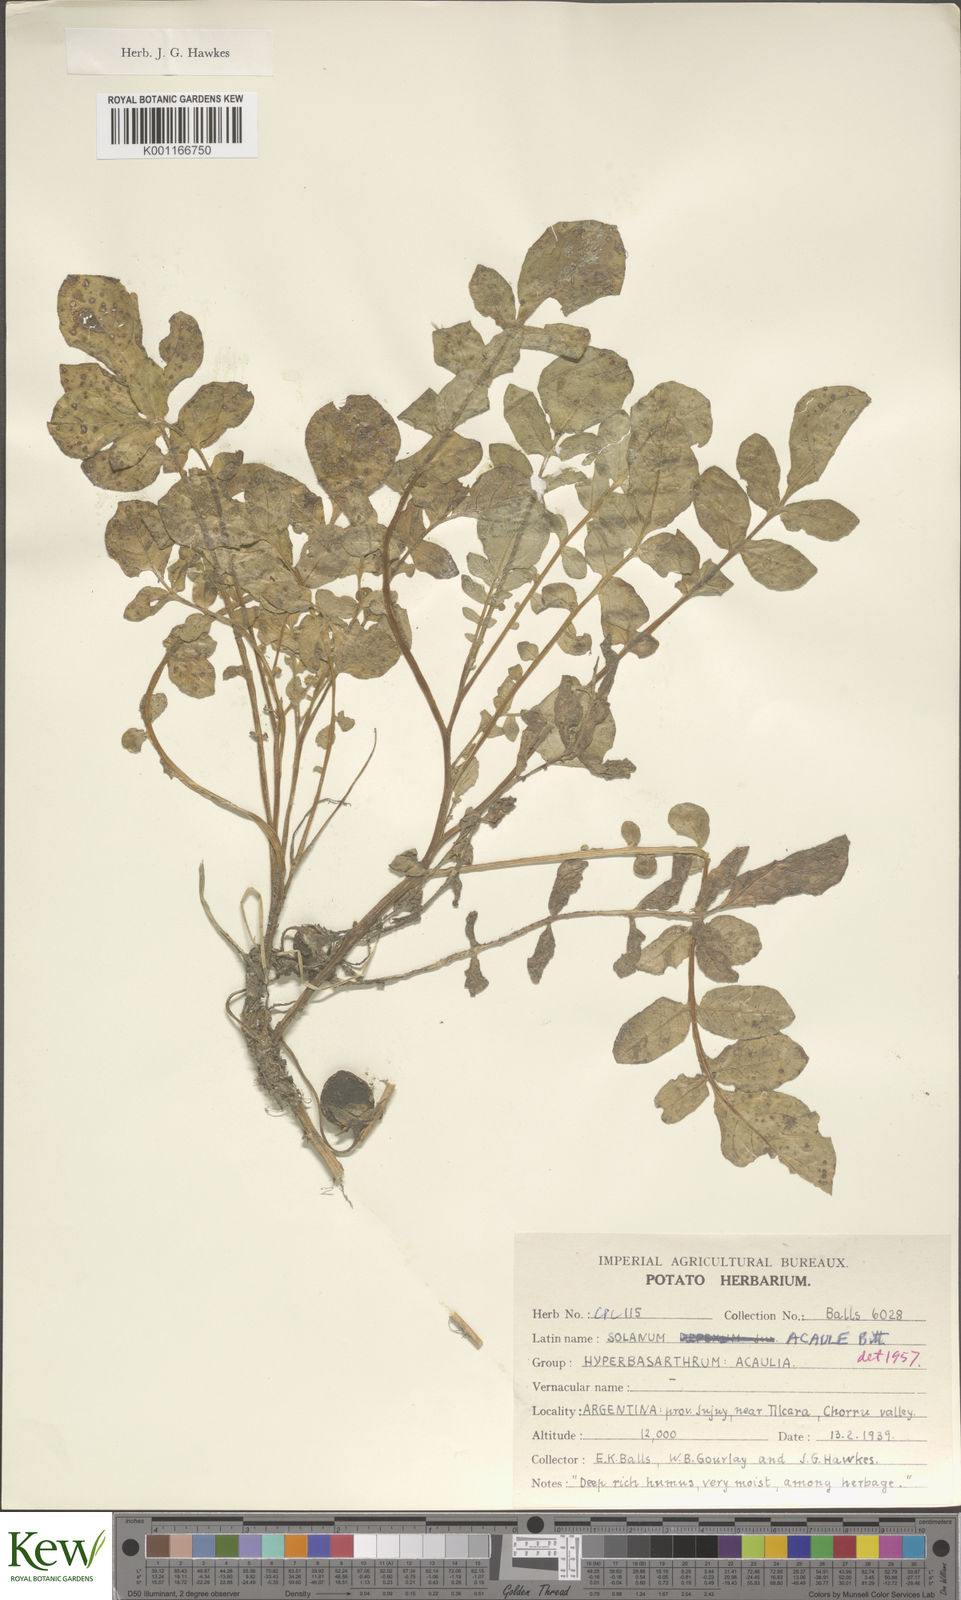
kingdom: Plantae
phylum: Tracheophyta
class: Magnoliopsida
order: Solanales
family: Solanaceae
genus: Solanum
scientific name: Solanum acaule
